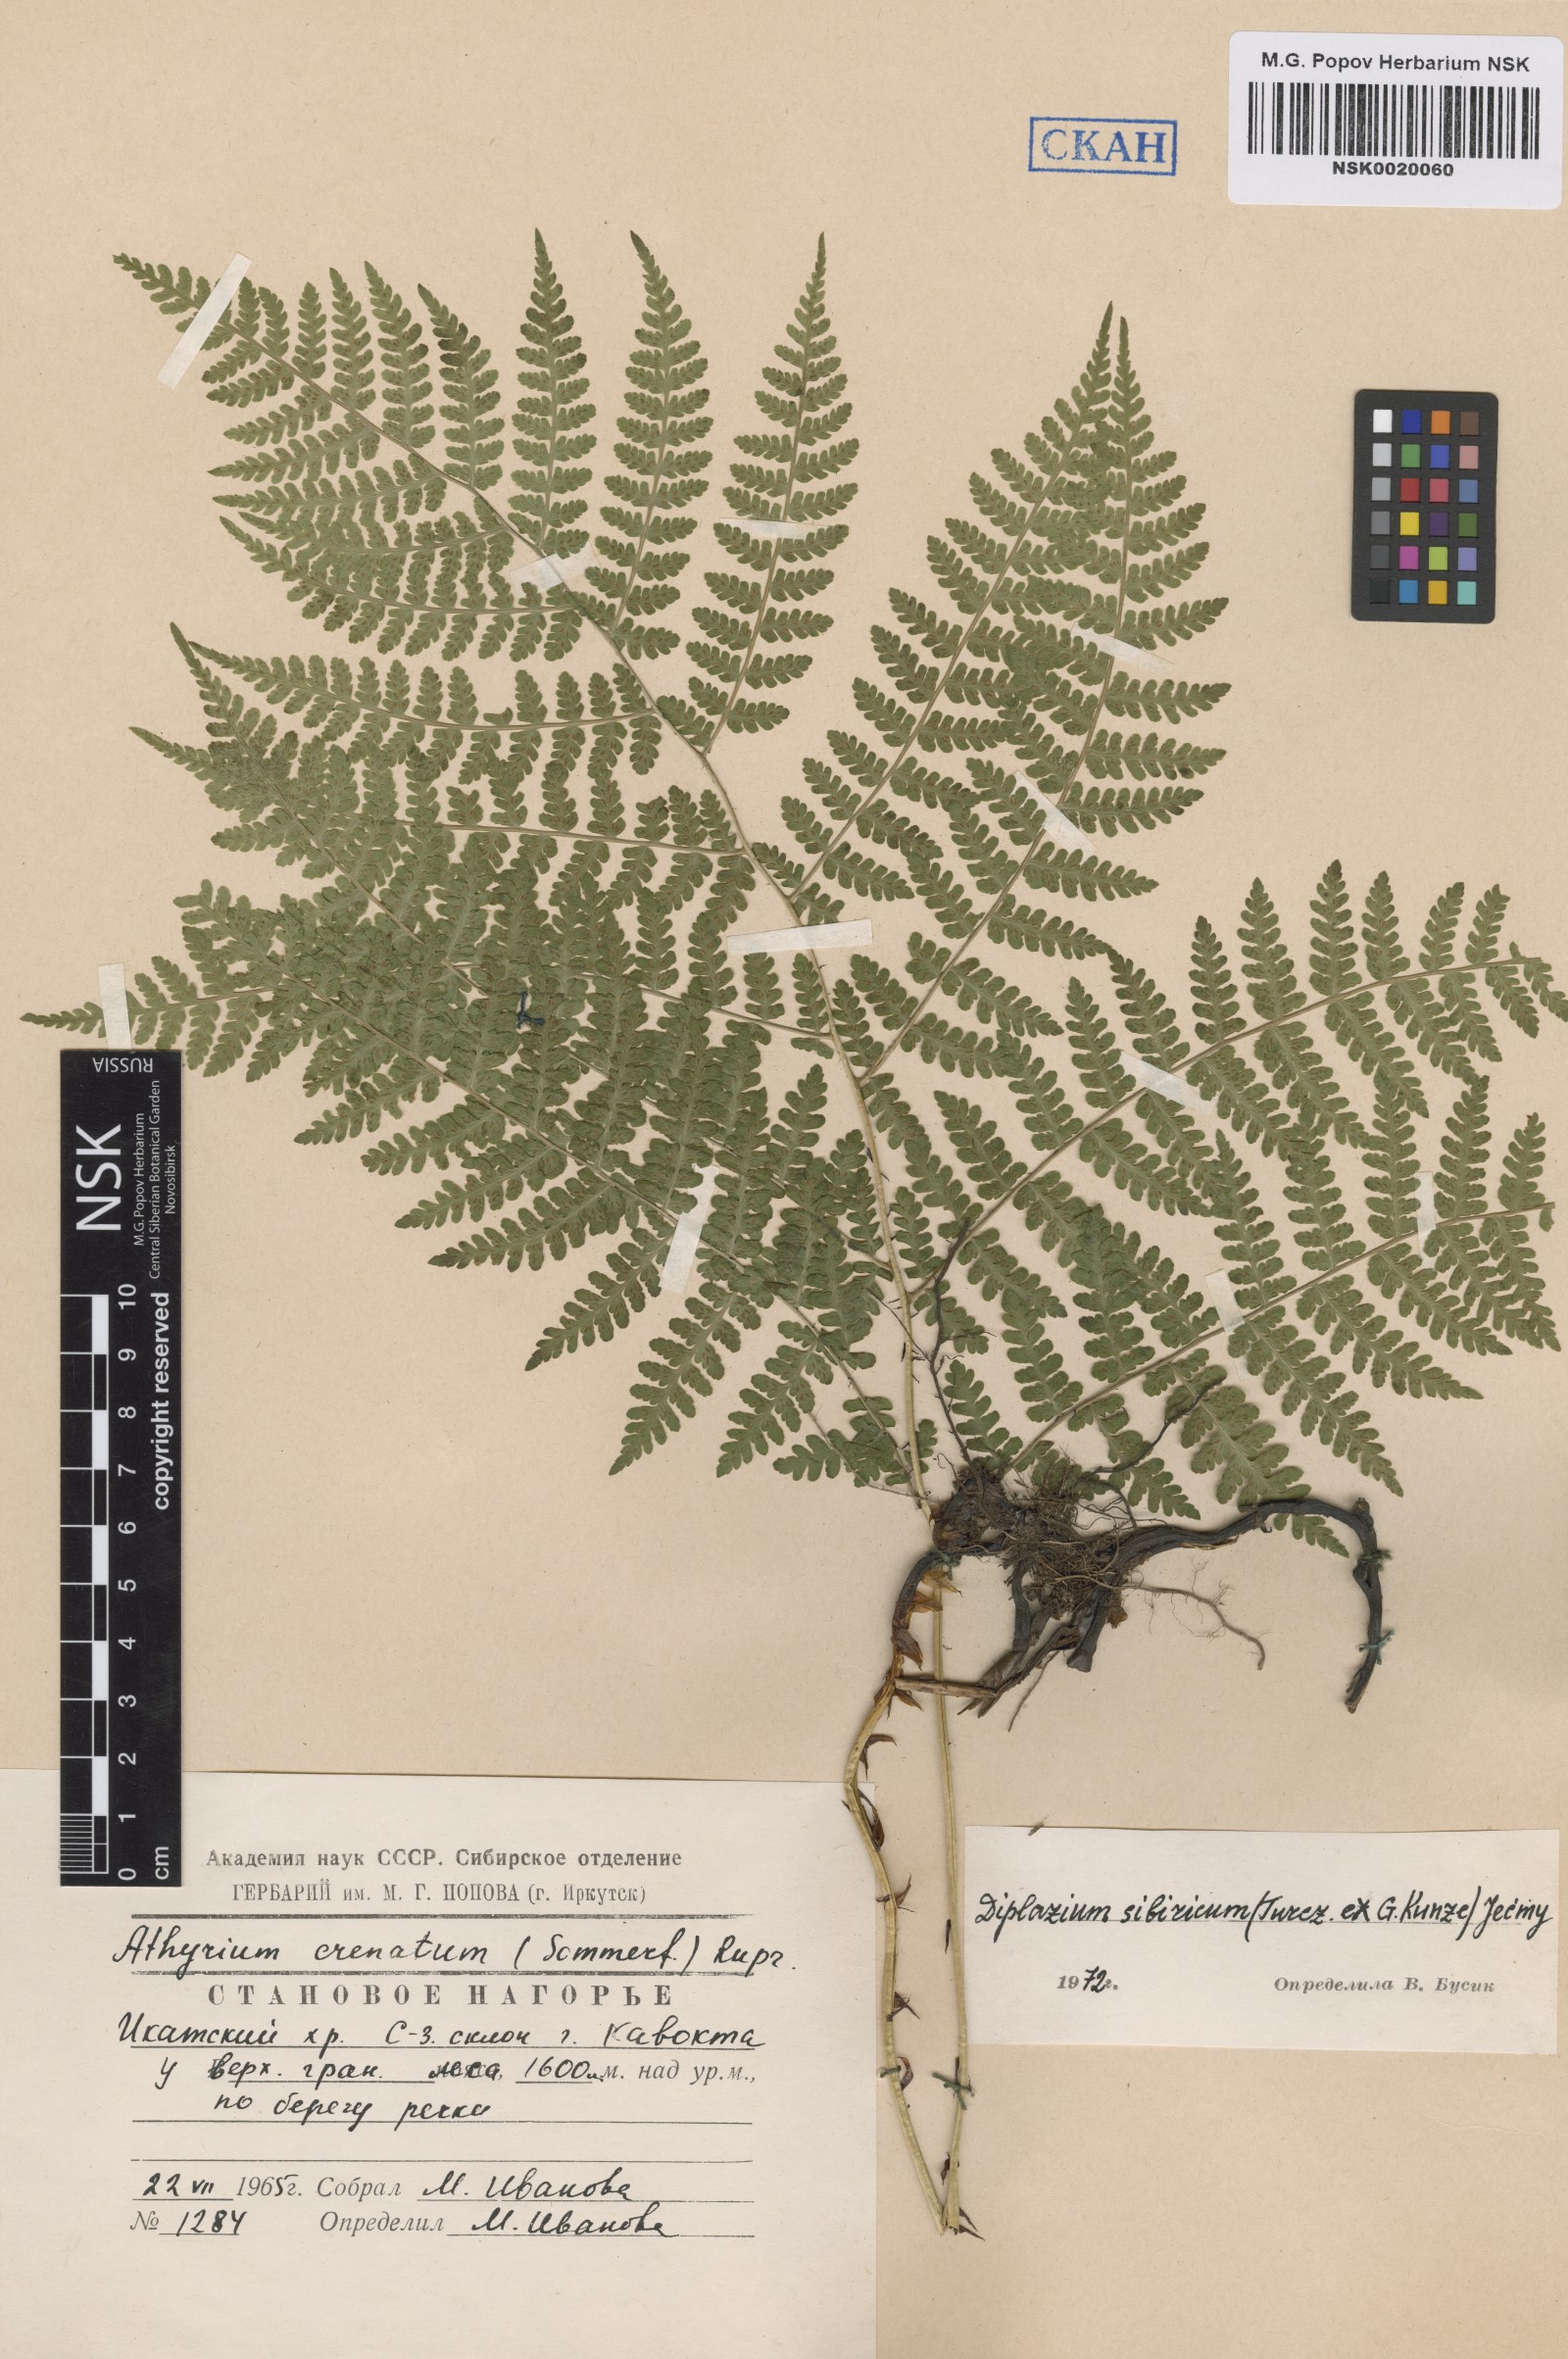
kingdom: Plantae
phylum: Tracheophyta
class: Polypodiopsida
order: Polypodiales
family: Athyriaceae
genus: Diplazium
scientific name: Diplazium sibiricum
